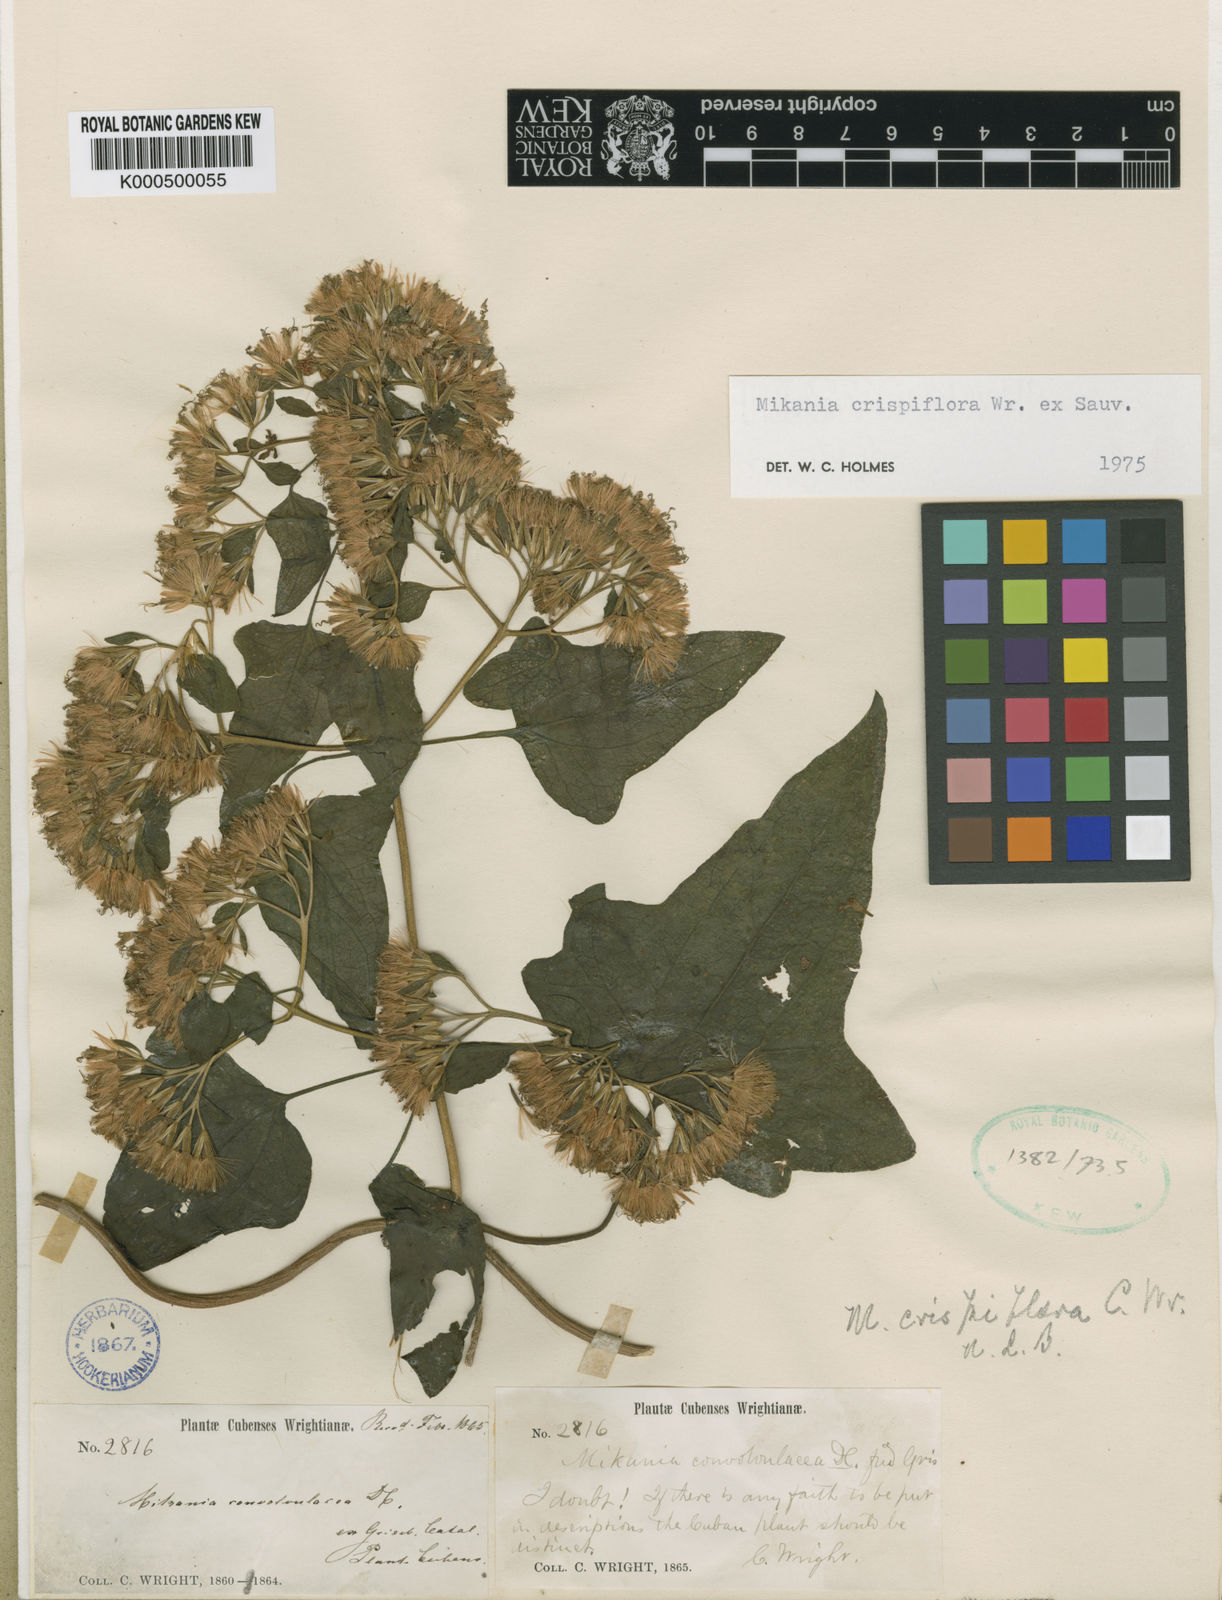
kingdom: Plantae
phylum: Tracheophyta
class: Magnoliopsida
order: Asterales
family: Asteraceae
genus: Mikania
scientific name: Mikania crispiflora
